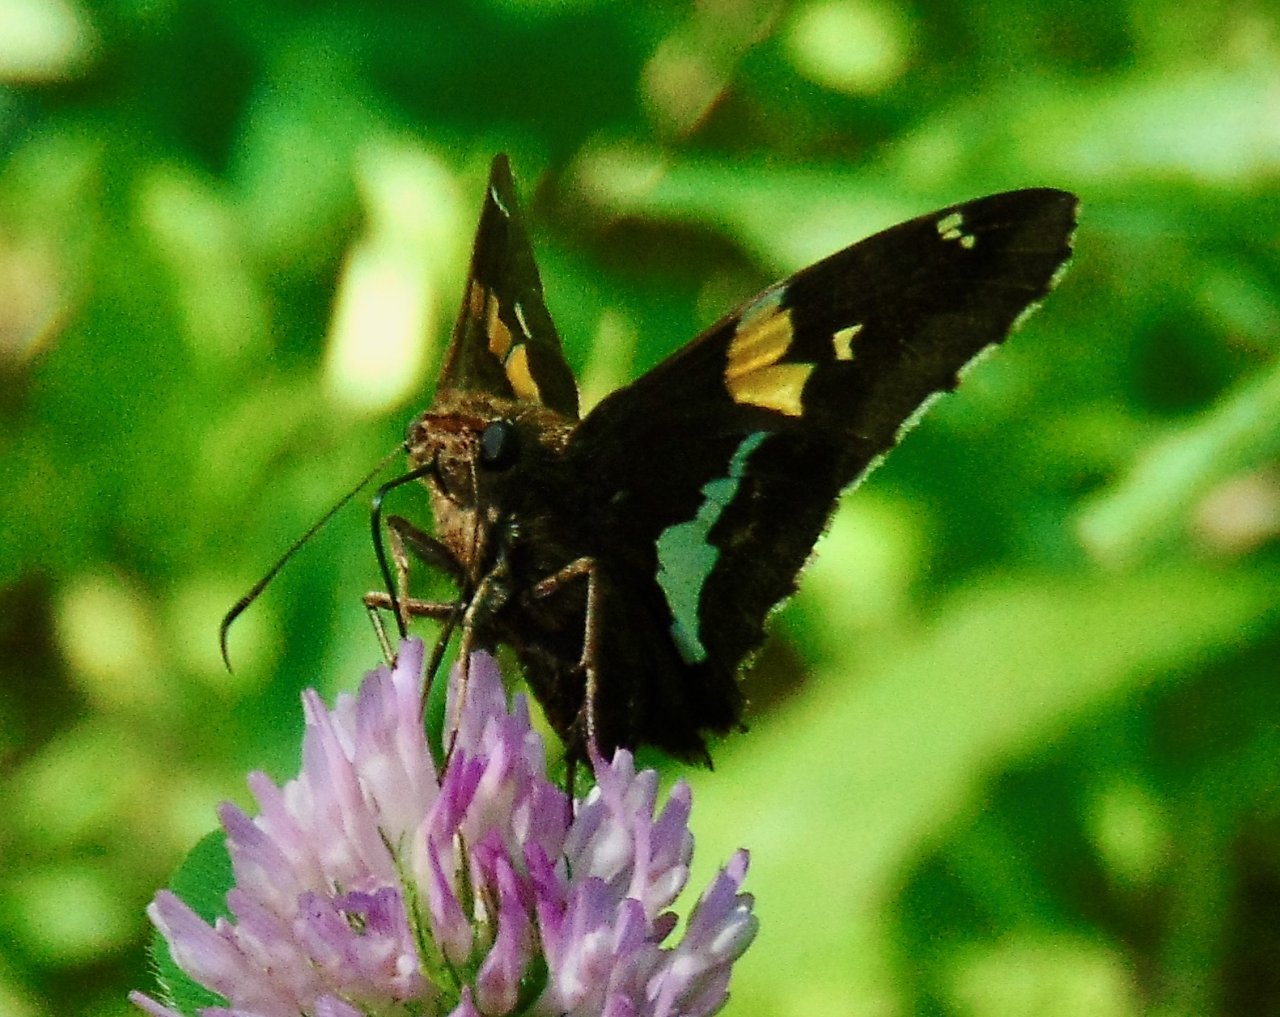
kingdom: Animalia
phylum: Arthropoda
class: Insecta
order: Lepidoptera
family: Hesperiidae
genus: Epargyreus
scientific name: Epargyreus clarus
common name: Silver-spotted Skipper
